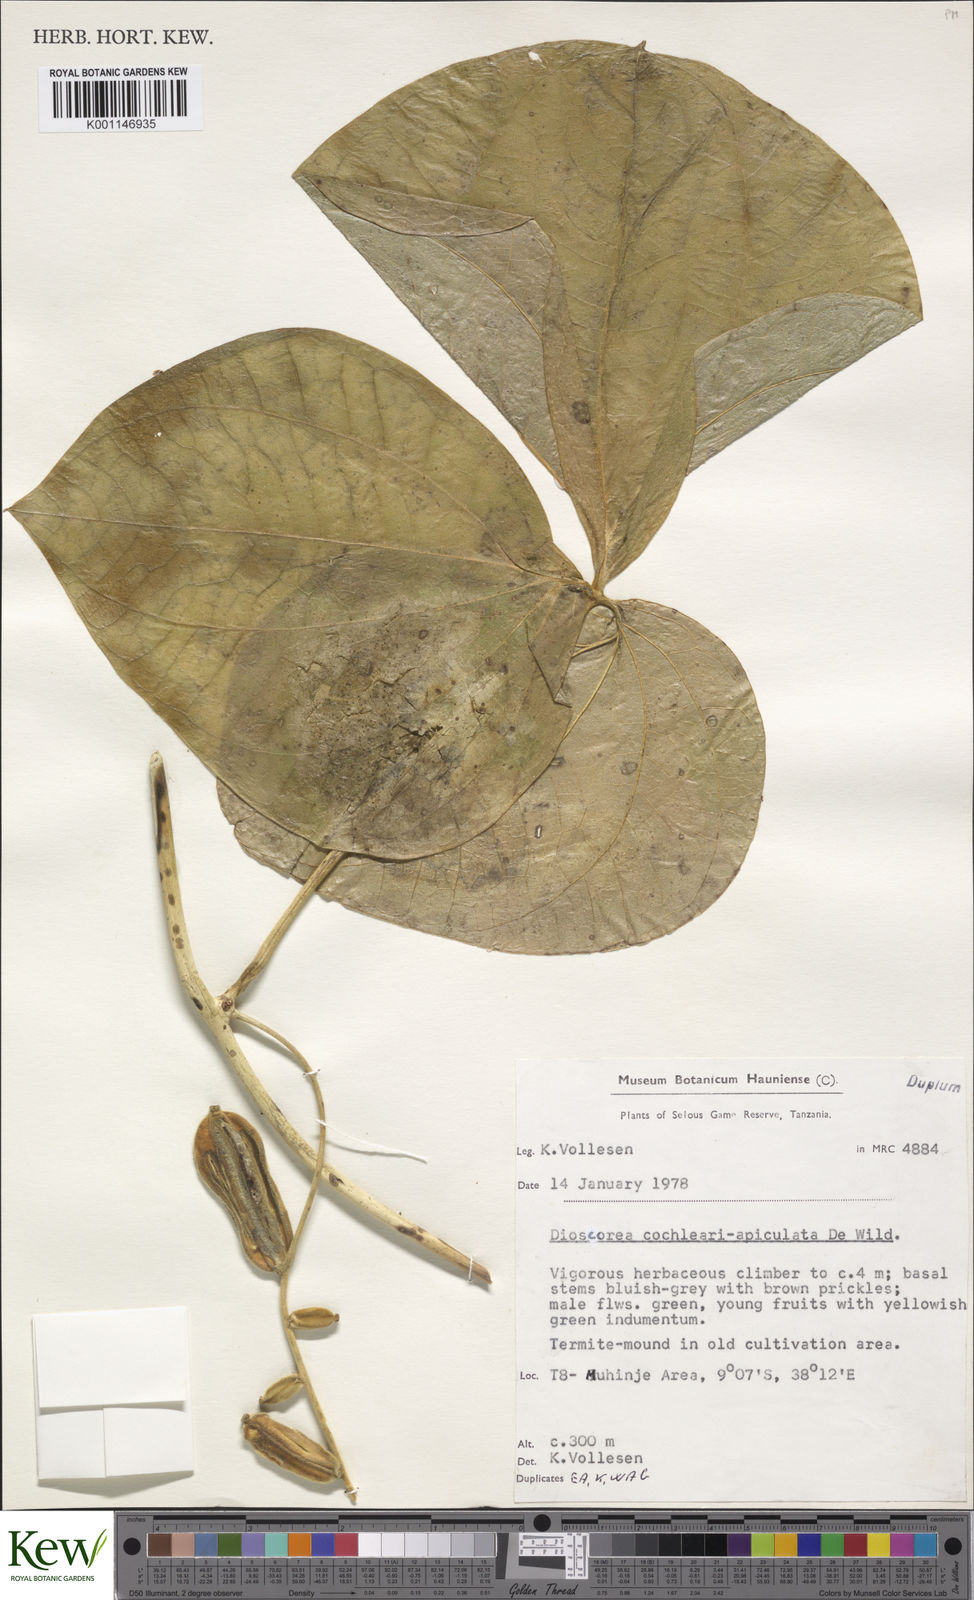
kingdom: Plantae
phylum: Tracheophyta
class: Liliopsida
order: Dioscoreales
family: Dioscoreaceae
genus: Dioscorea
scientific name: Dioscorea cochleariapiculata
